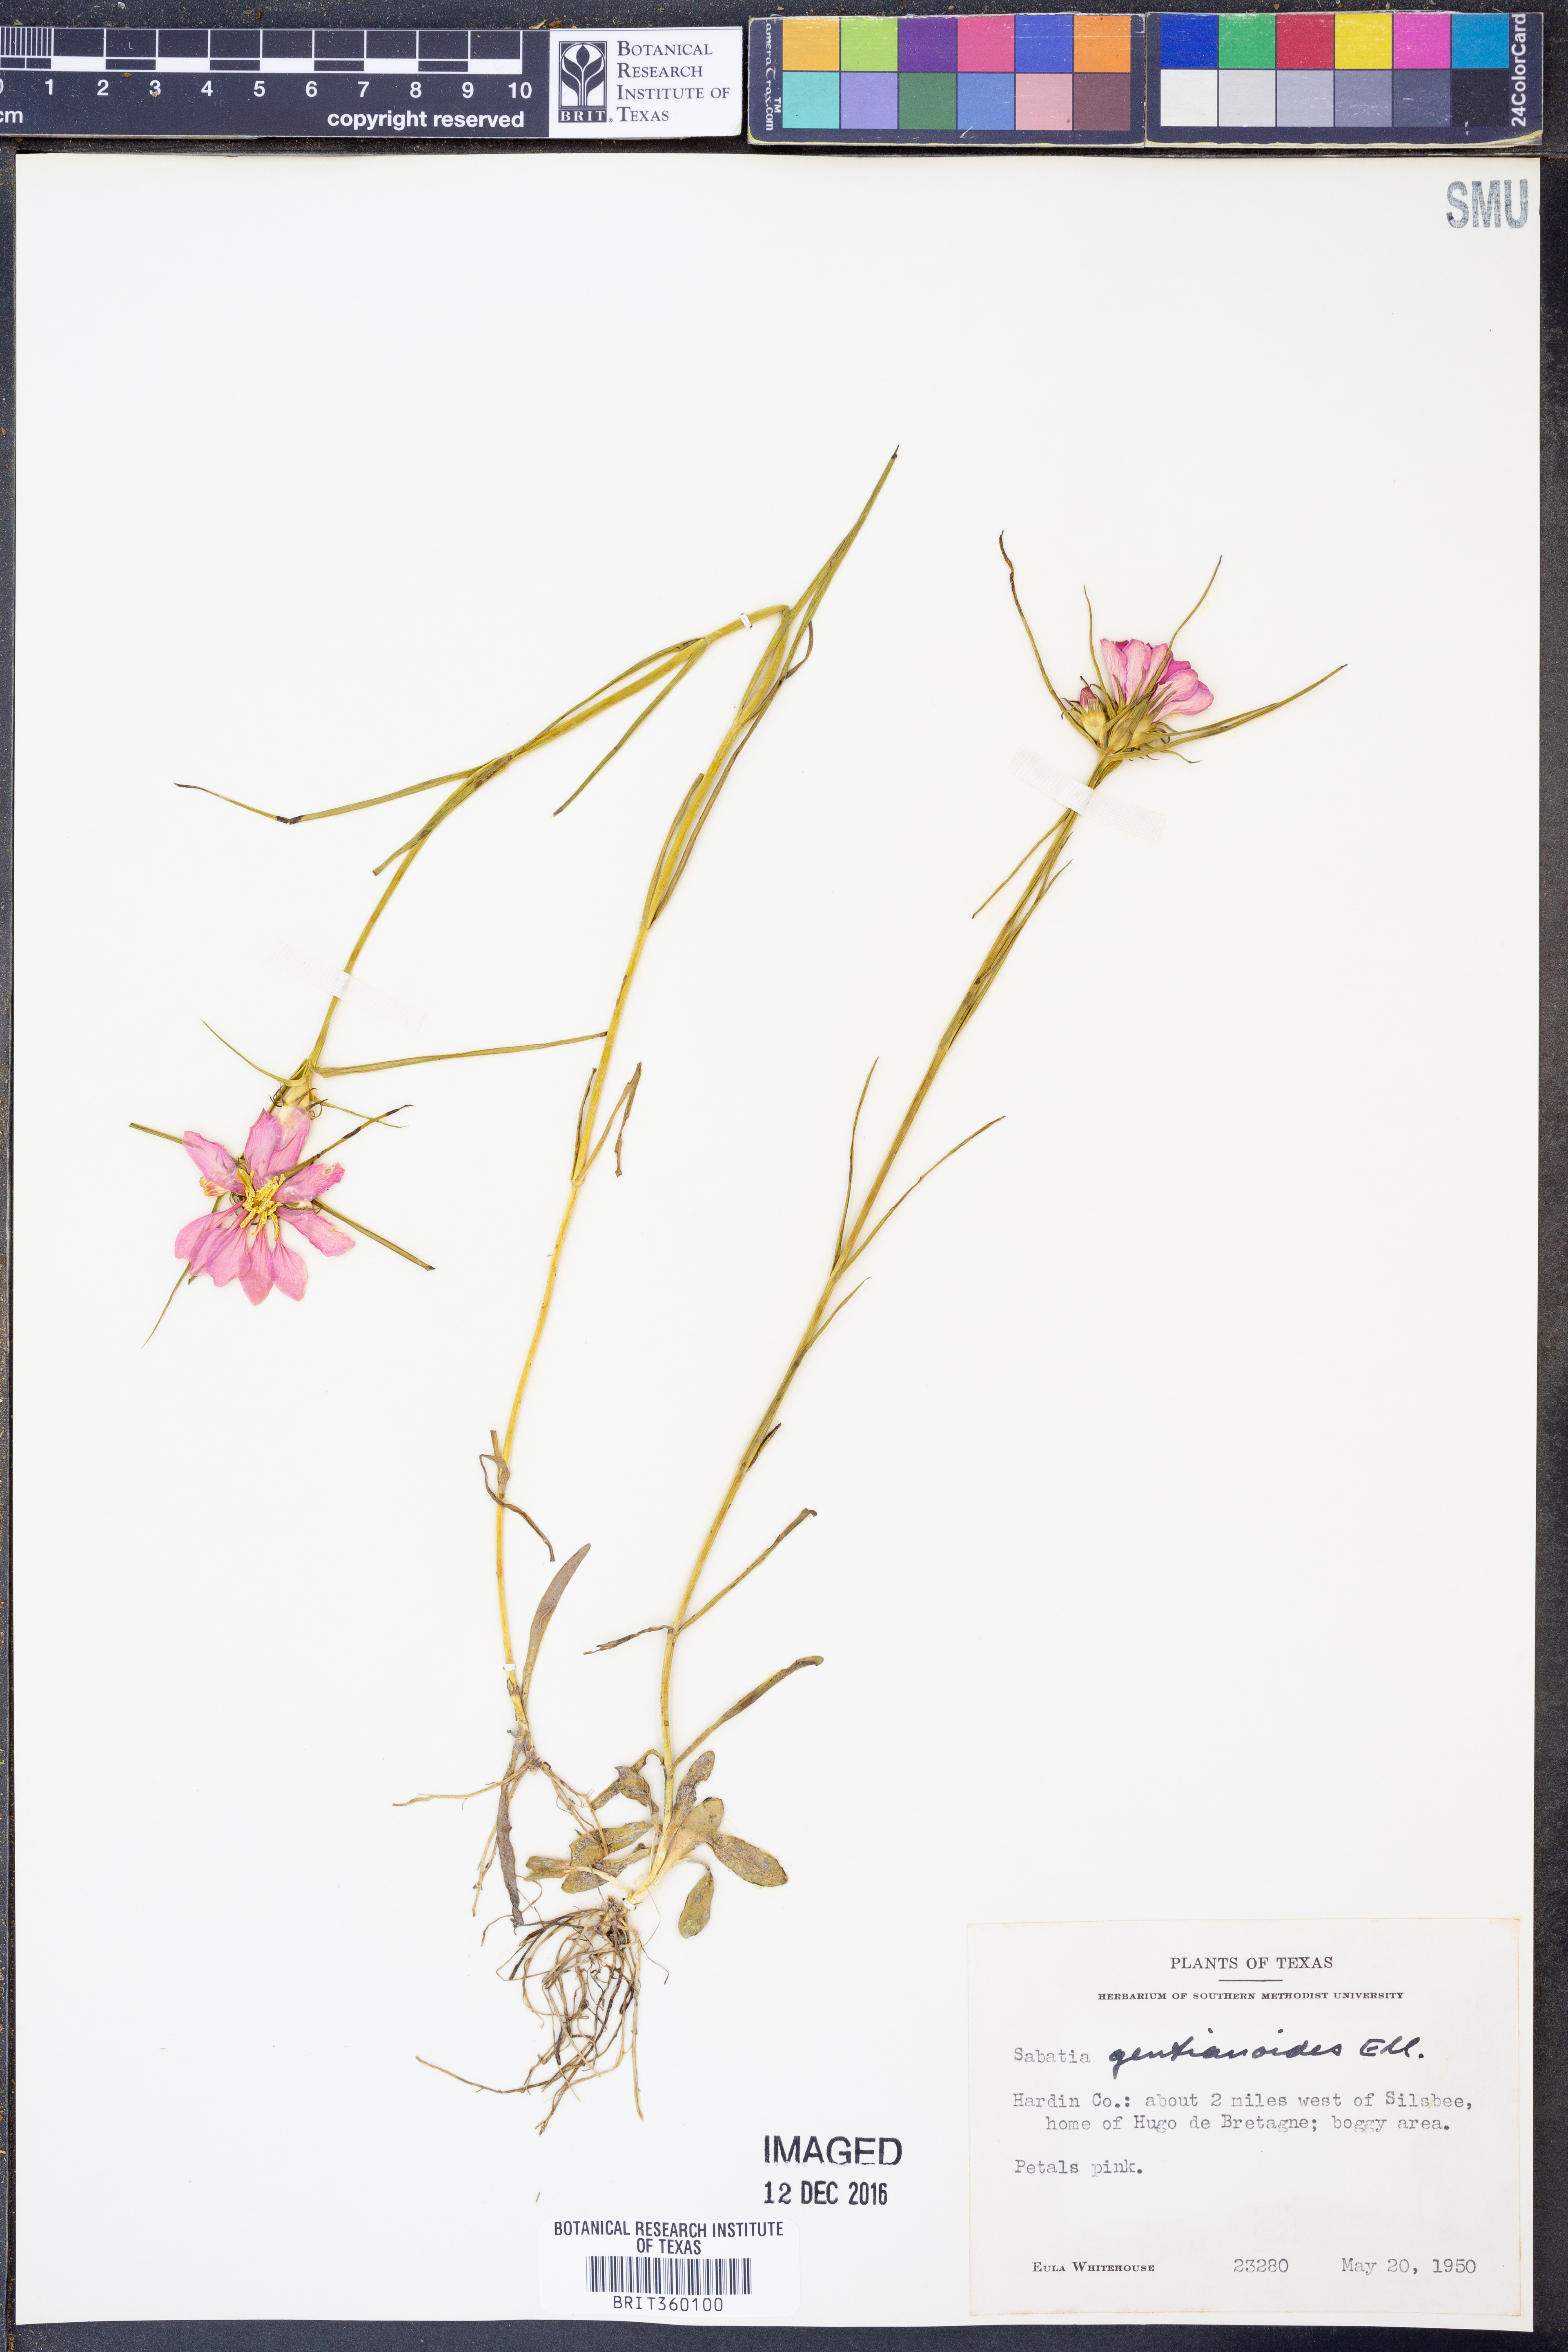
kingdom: Plantae
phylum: Tracheophyta
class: Magnoliopsida
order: Gentianales
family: Gentianaceae
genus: Sabatia
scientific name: Sabatia gentianoides
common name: Pinewoods rose-gentian
